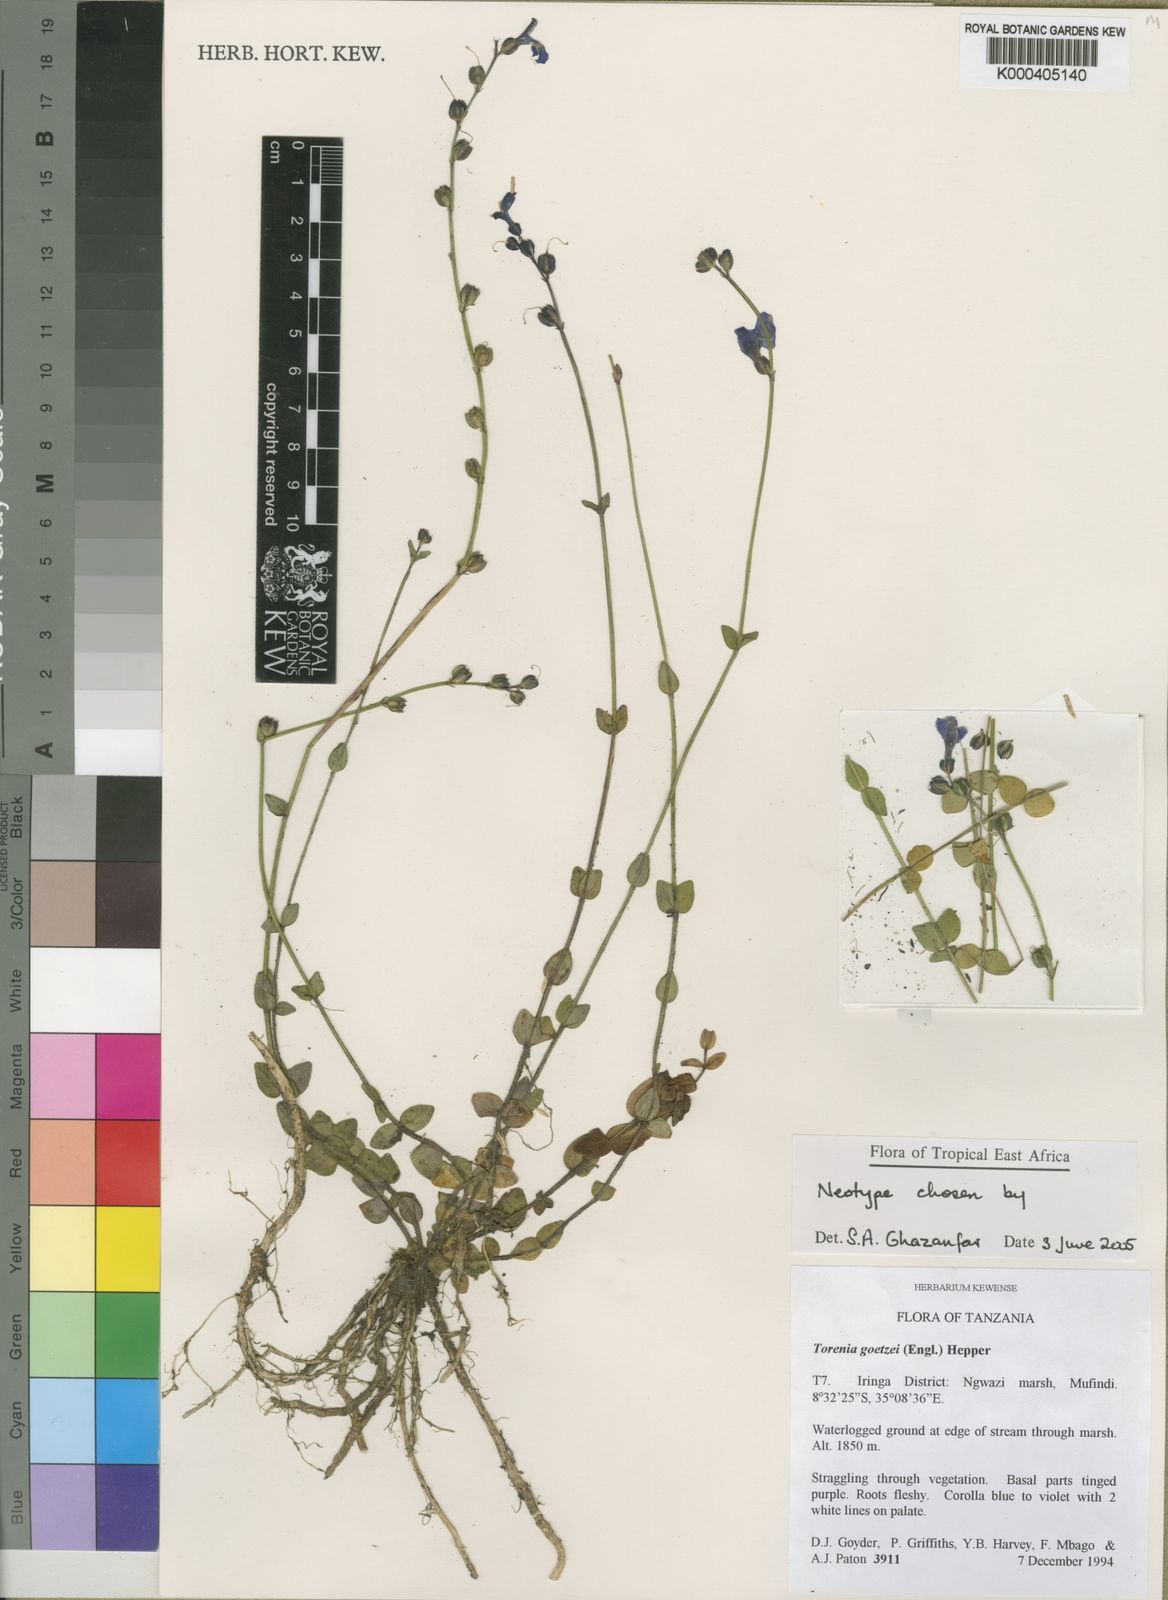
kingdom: Plantae
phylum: Tracheophyta
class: Magnoliopsida
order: Lamiales
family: Linderniaceae
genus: Crepidorhopalon
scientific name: Crepidorhopalon goetzei
